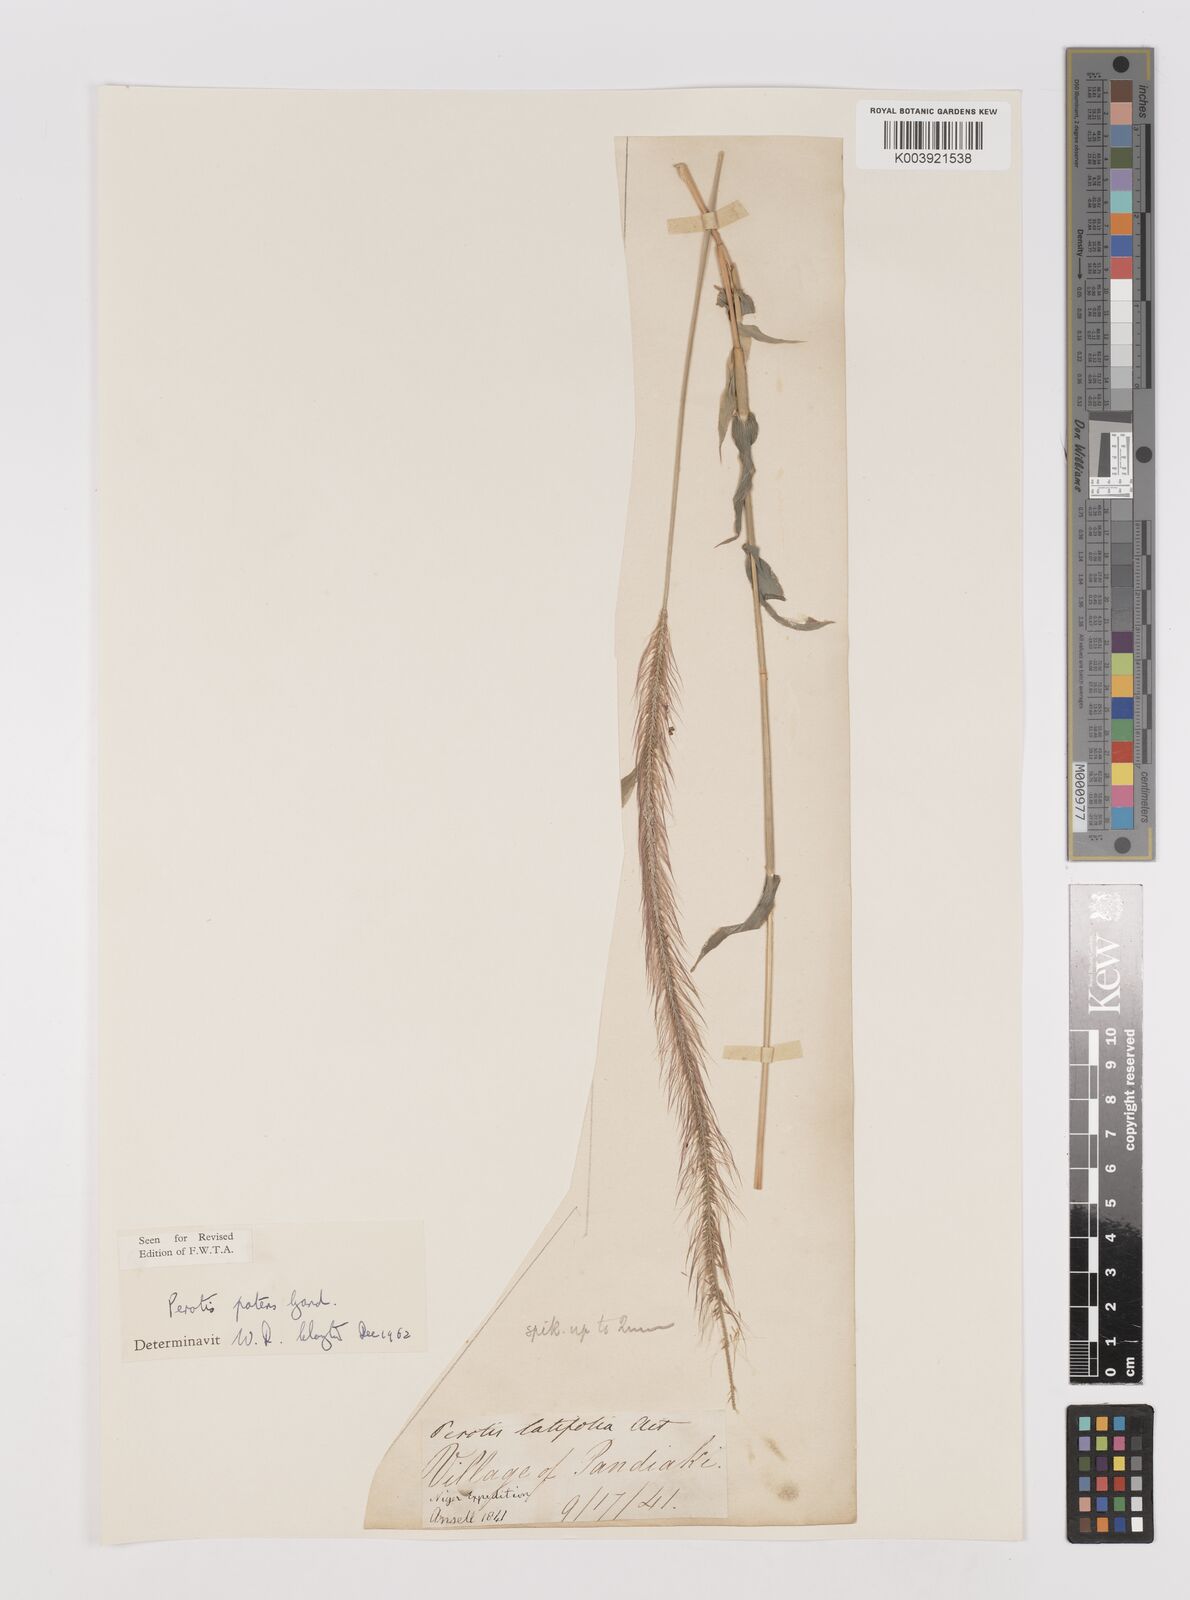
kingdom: Plantae
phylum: Tracheophyta
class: Liliopsida
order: Poales
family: Poaceae
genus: Perotis
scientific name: Perotis patens
